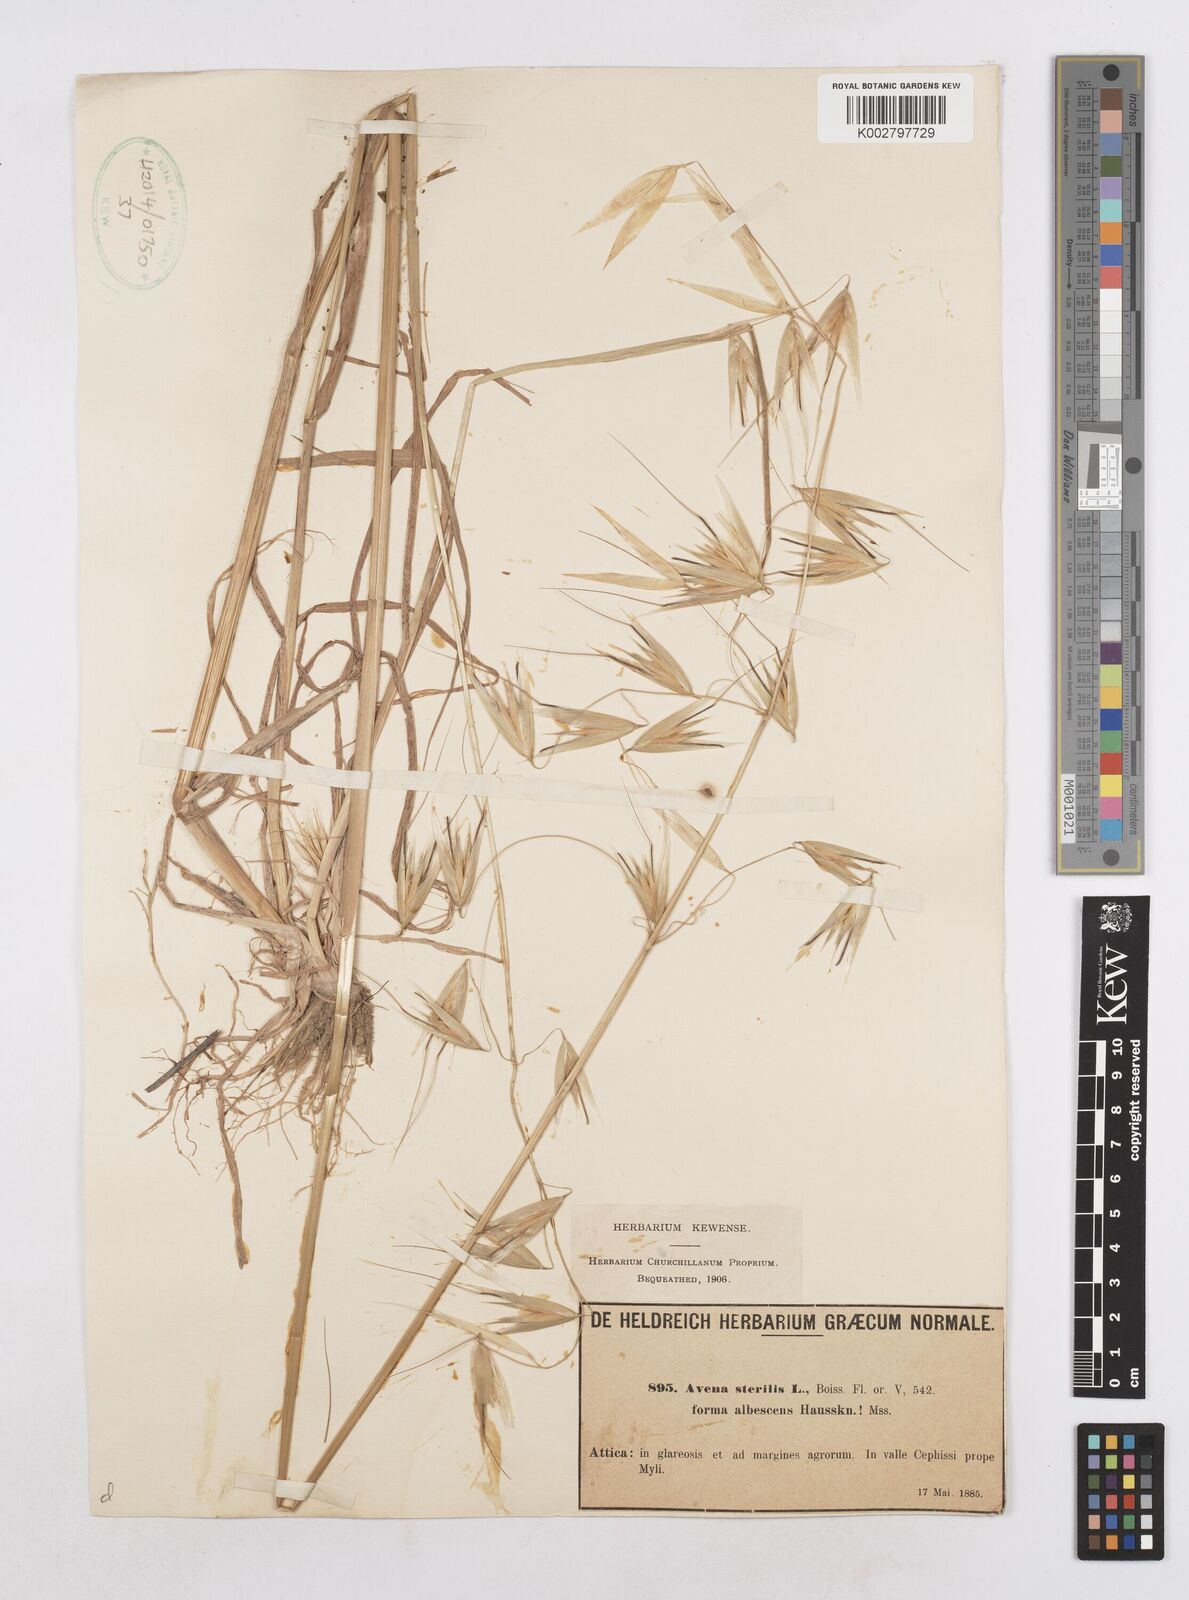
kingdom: Plantae
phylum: Tracheophyta
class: Liliopsida
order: Poales
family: Poaceae
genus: Avena
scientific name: Avena sterilis
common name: Animated oat
